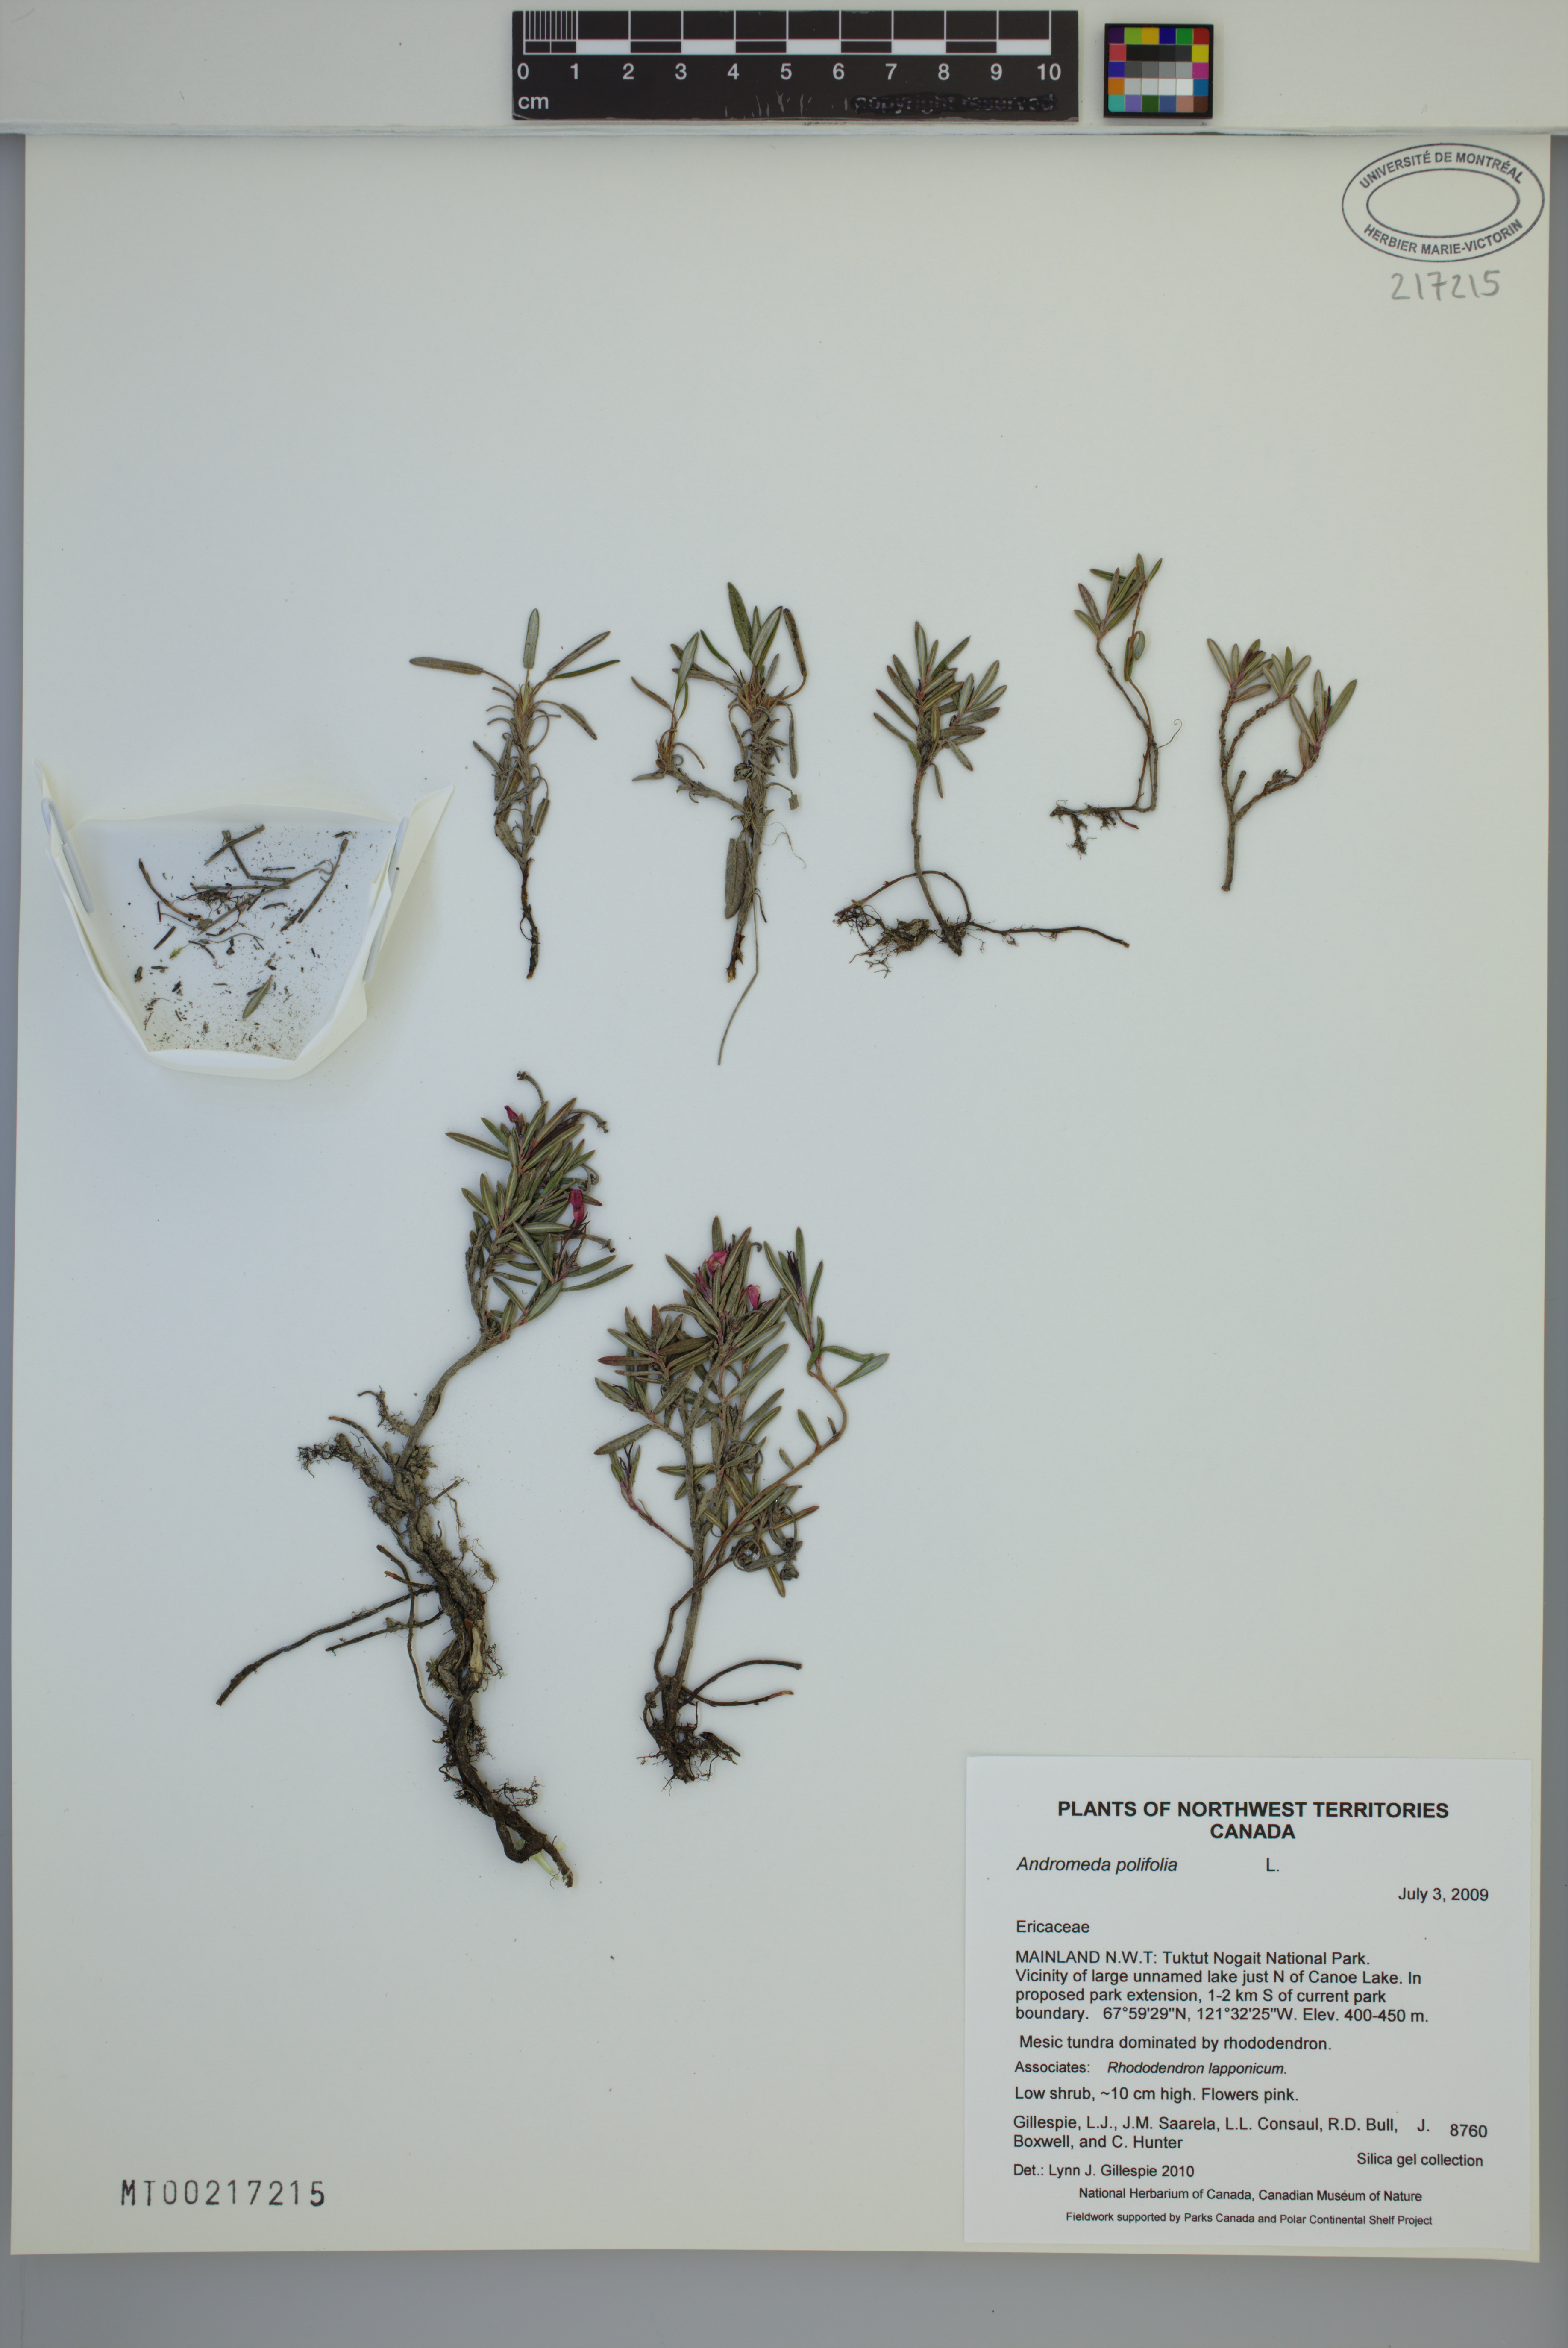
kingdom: Plantae
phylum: Tracheophyta
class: Magnoliopsida
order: Ericales
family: Ericaceae
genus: Andromeda
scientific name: Andromeda polifolia
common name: Bog-rosemary
